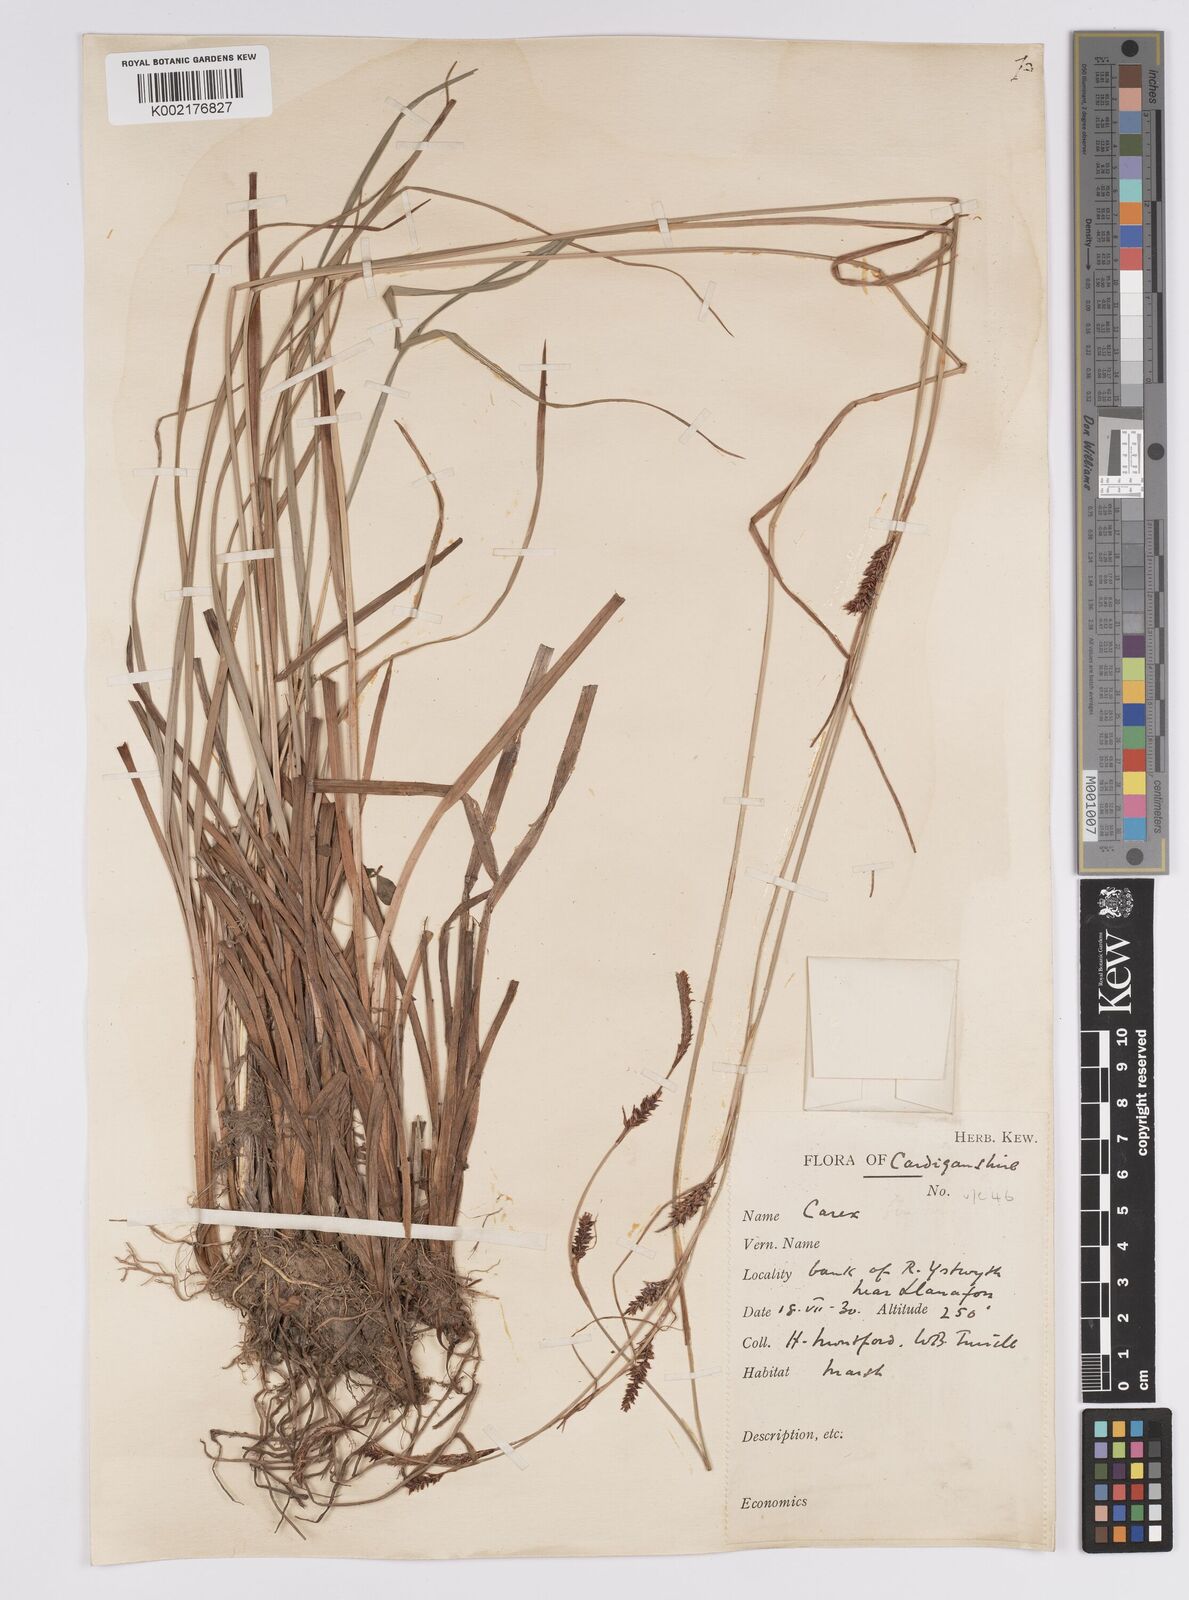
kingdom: Plantae
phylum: Tracheophyta
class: Liliopsida
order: Poales
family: Cyperaceae
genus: Carex
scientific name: Carex binervis
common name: Green-ribbed sedge
